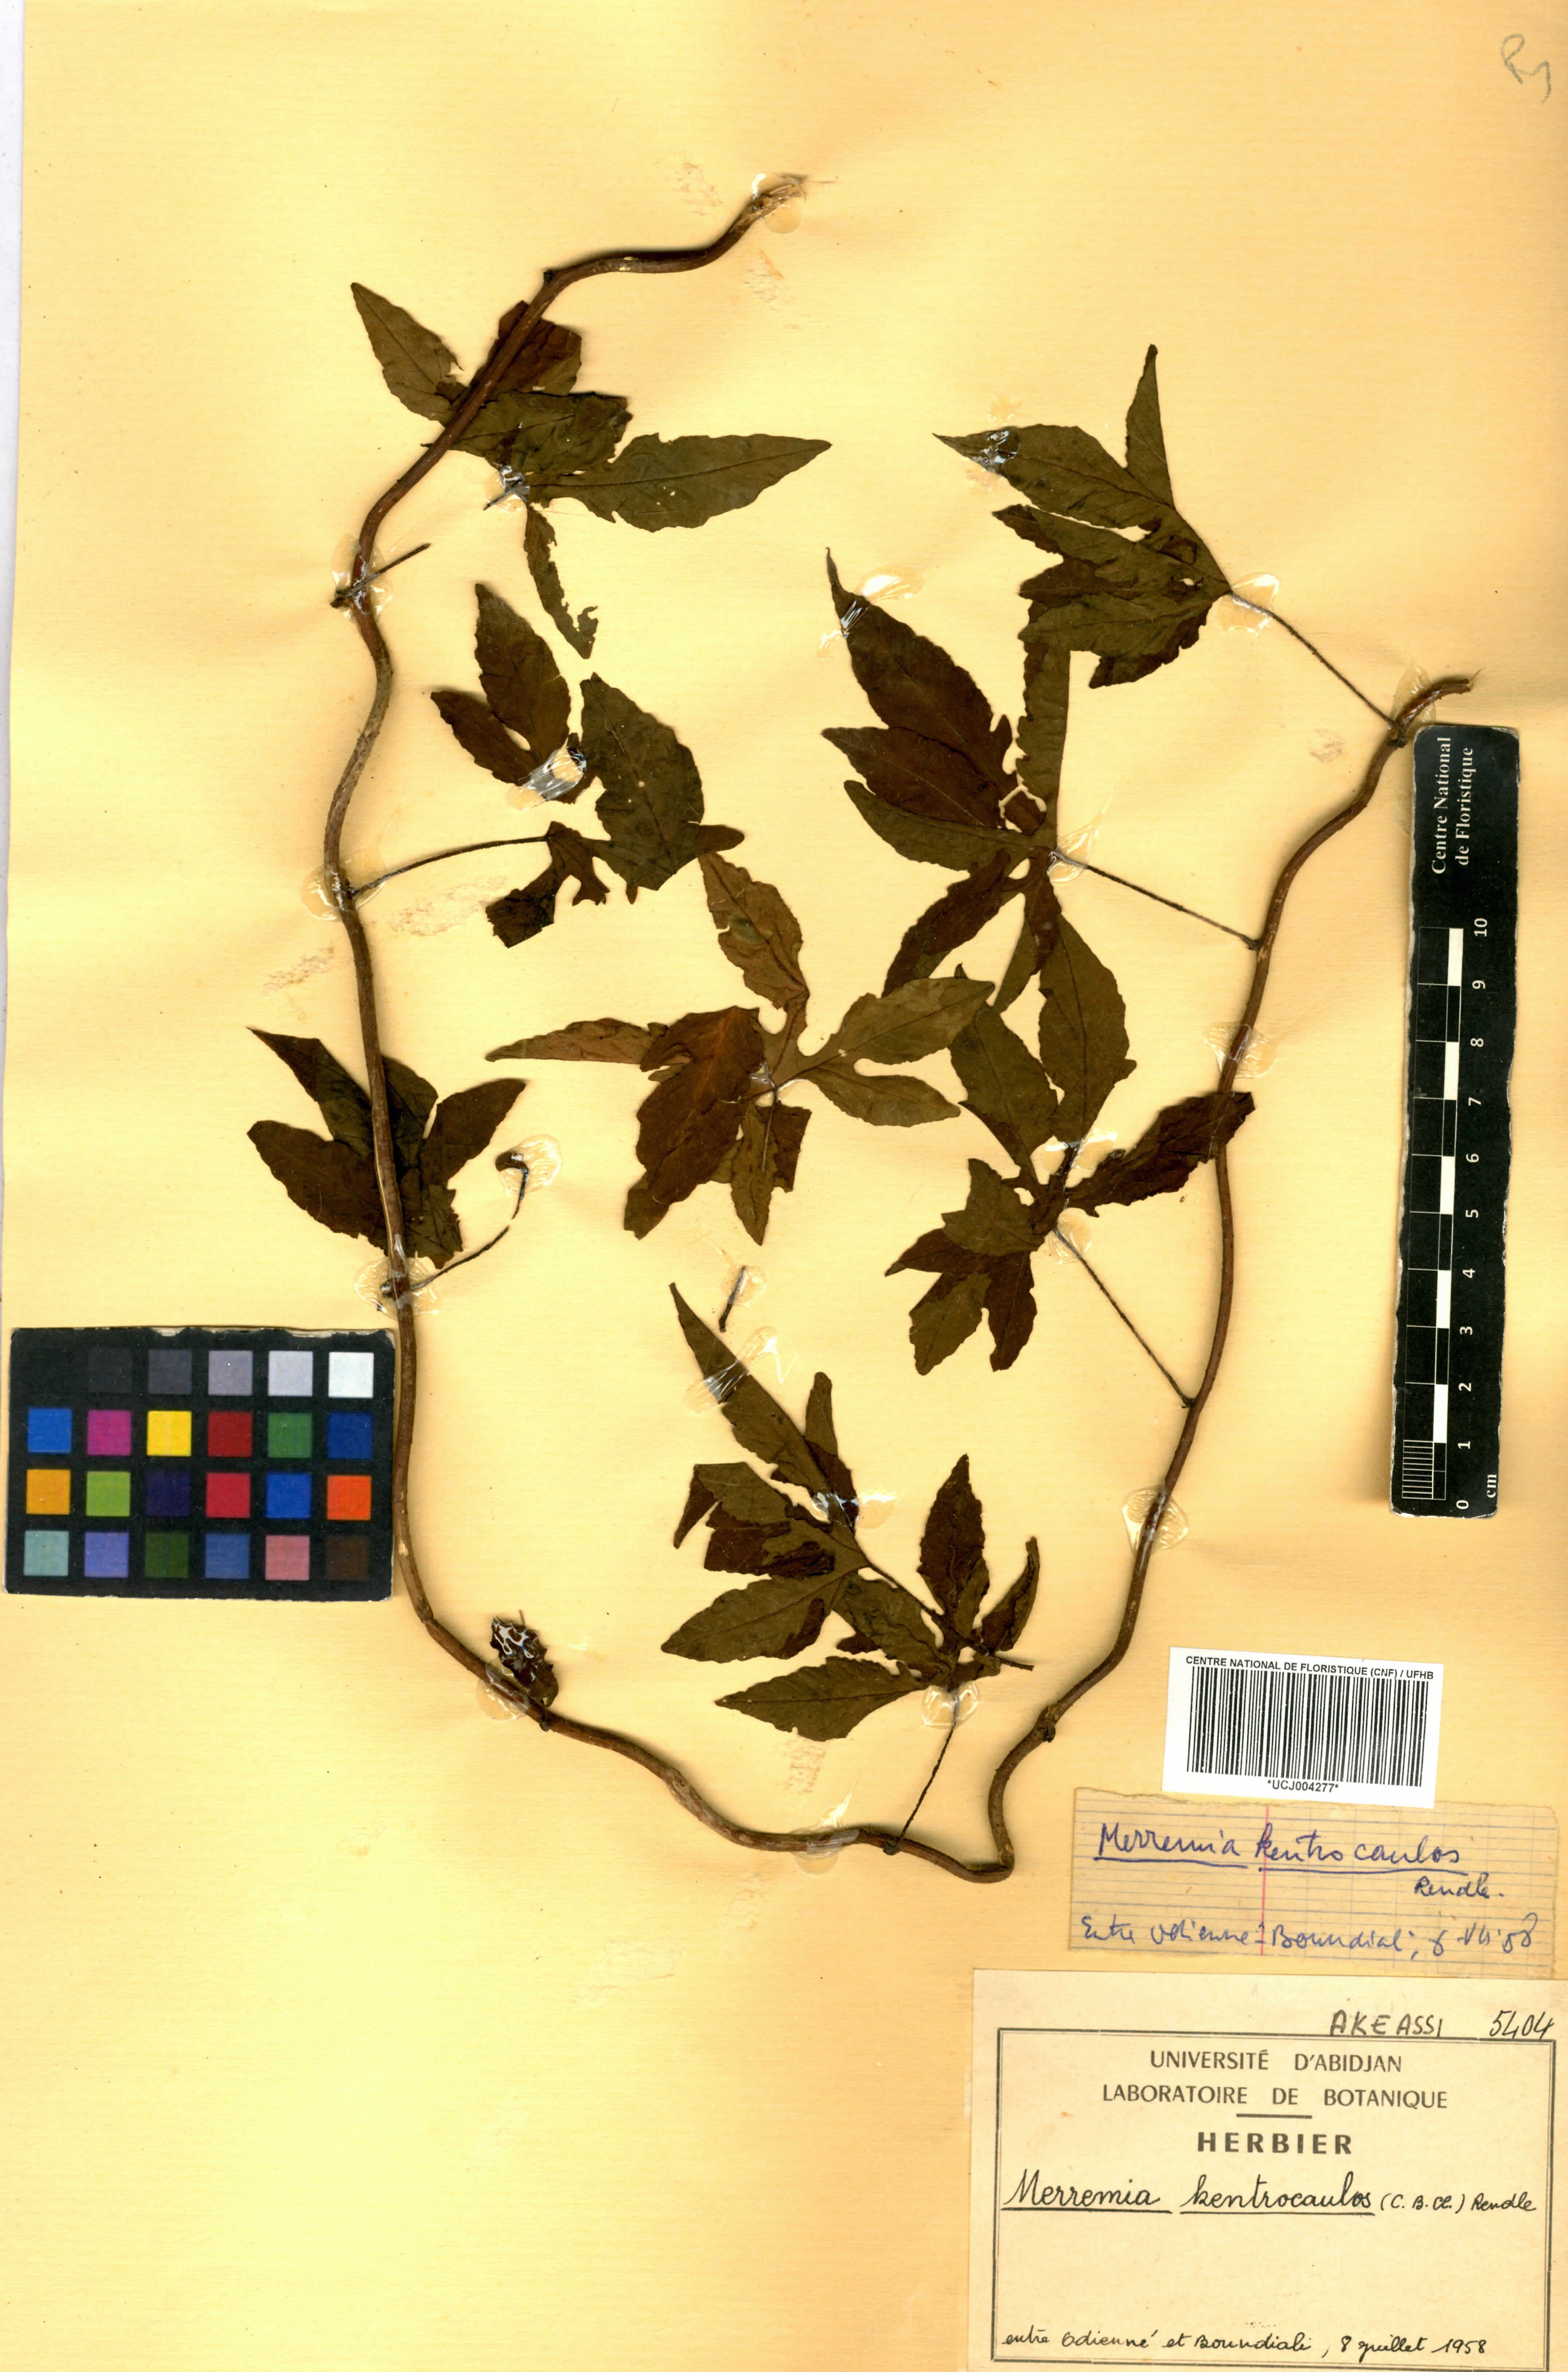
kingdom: Plantae
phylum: Tracheophyta
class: Magnoliopsida
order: Solanales
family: Convolvulaceae
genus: Distimake
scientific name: Distimake kentrocaulos
